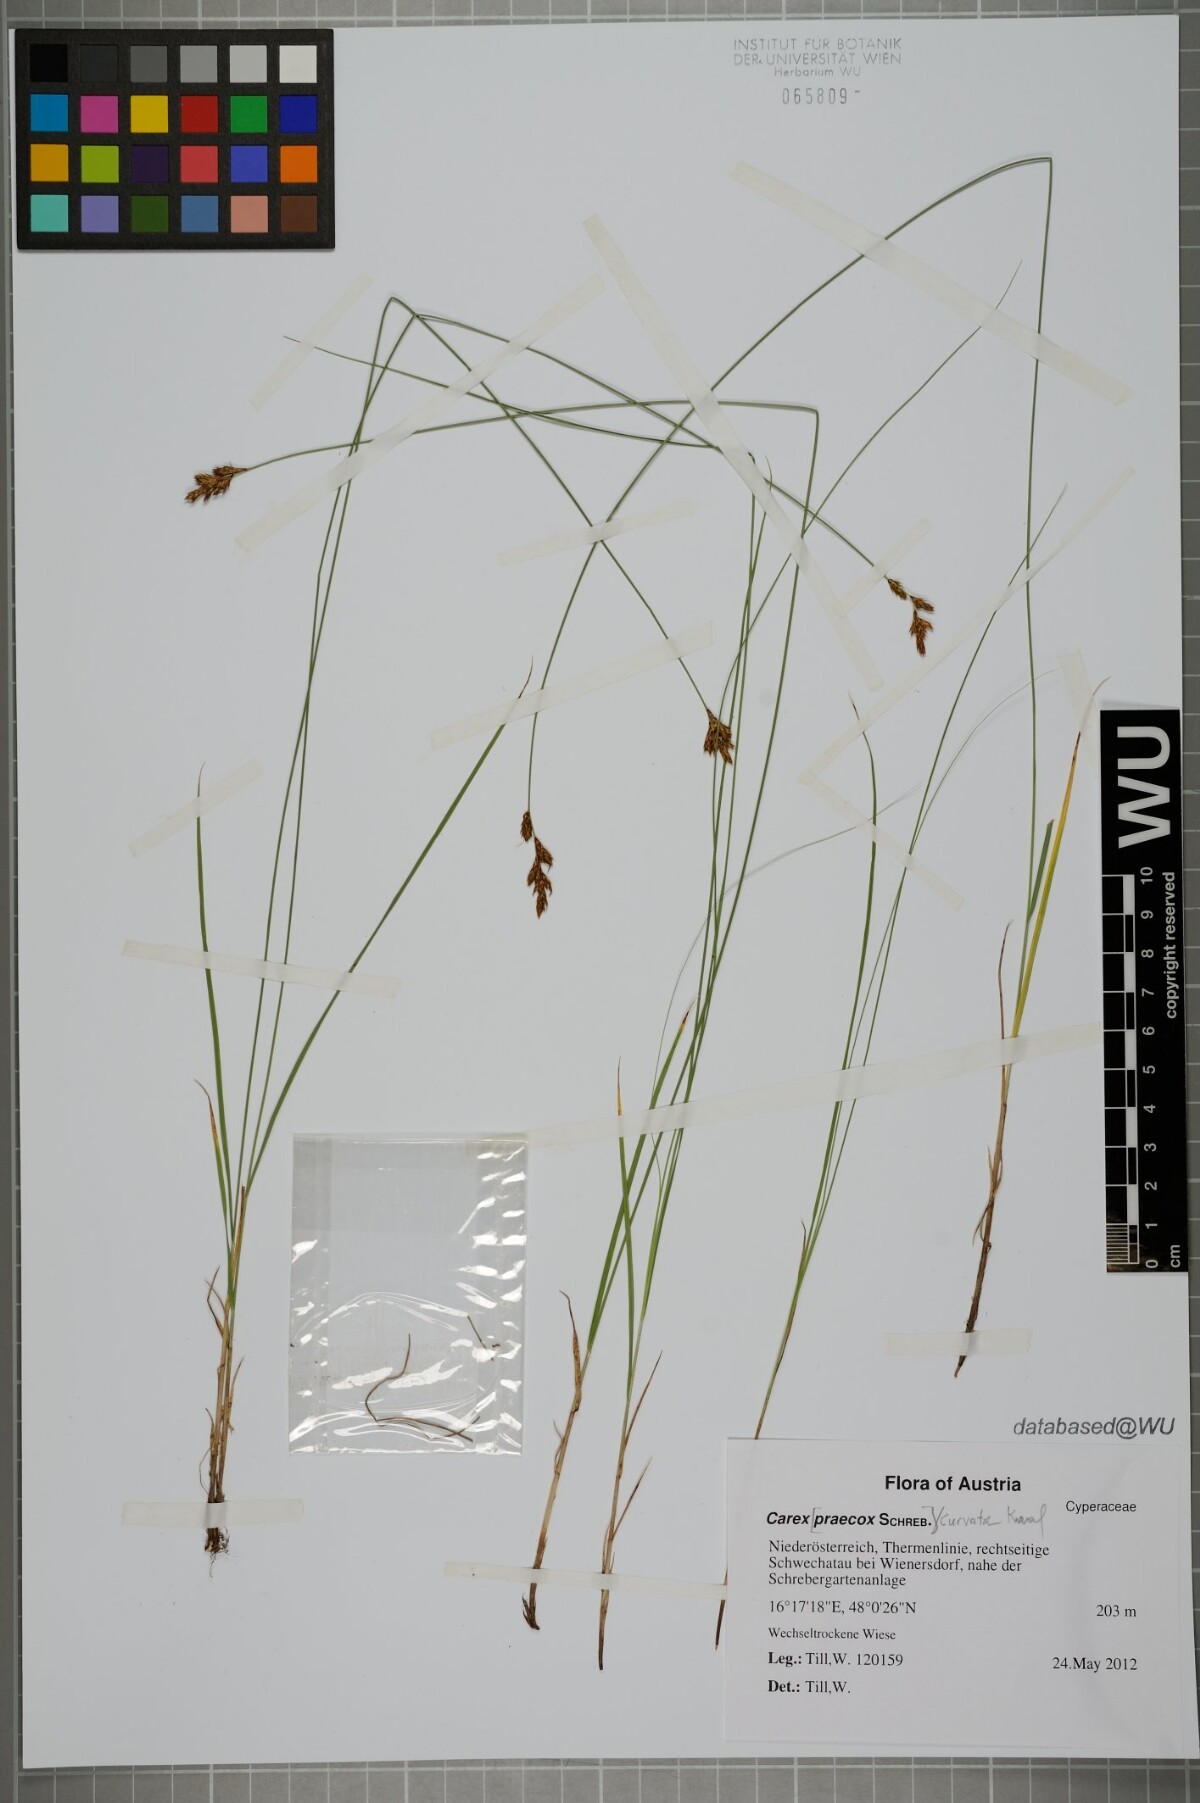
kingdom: Plantae
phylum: Tracheophyta
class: Liliopsida
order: Poales
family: Cyperaceae
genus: Carex
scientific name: Carex curvata
